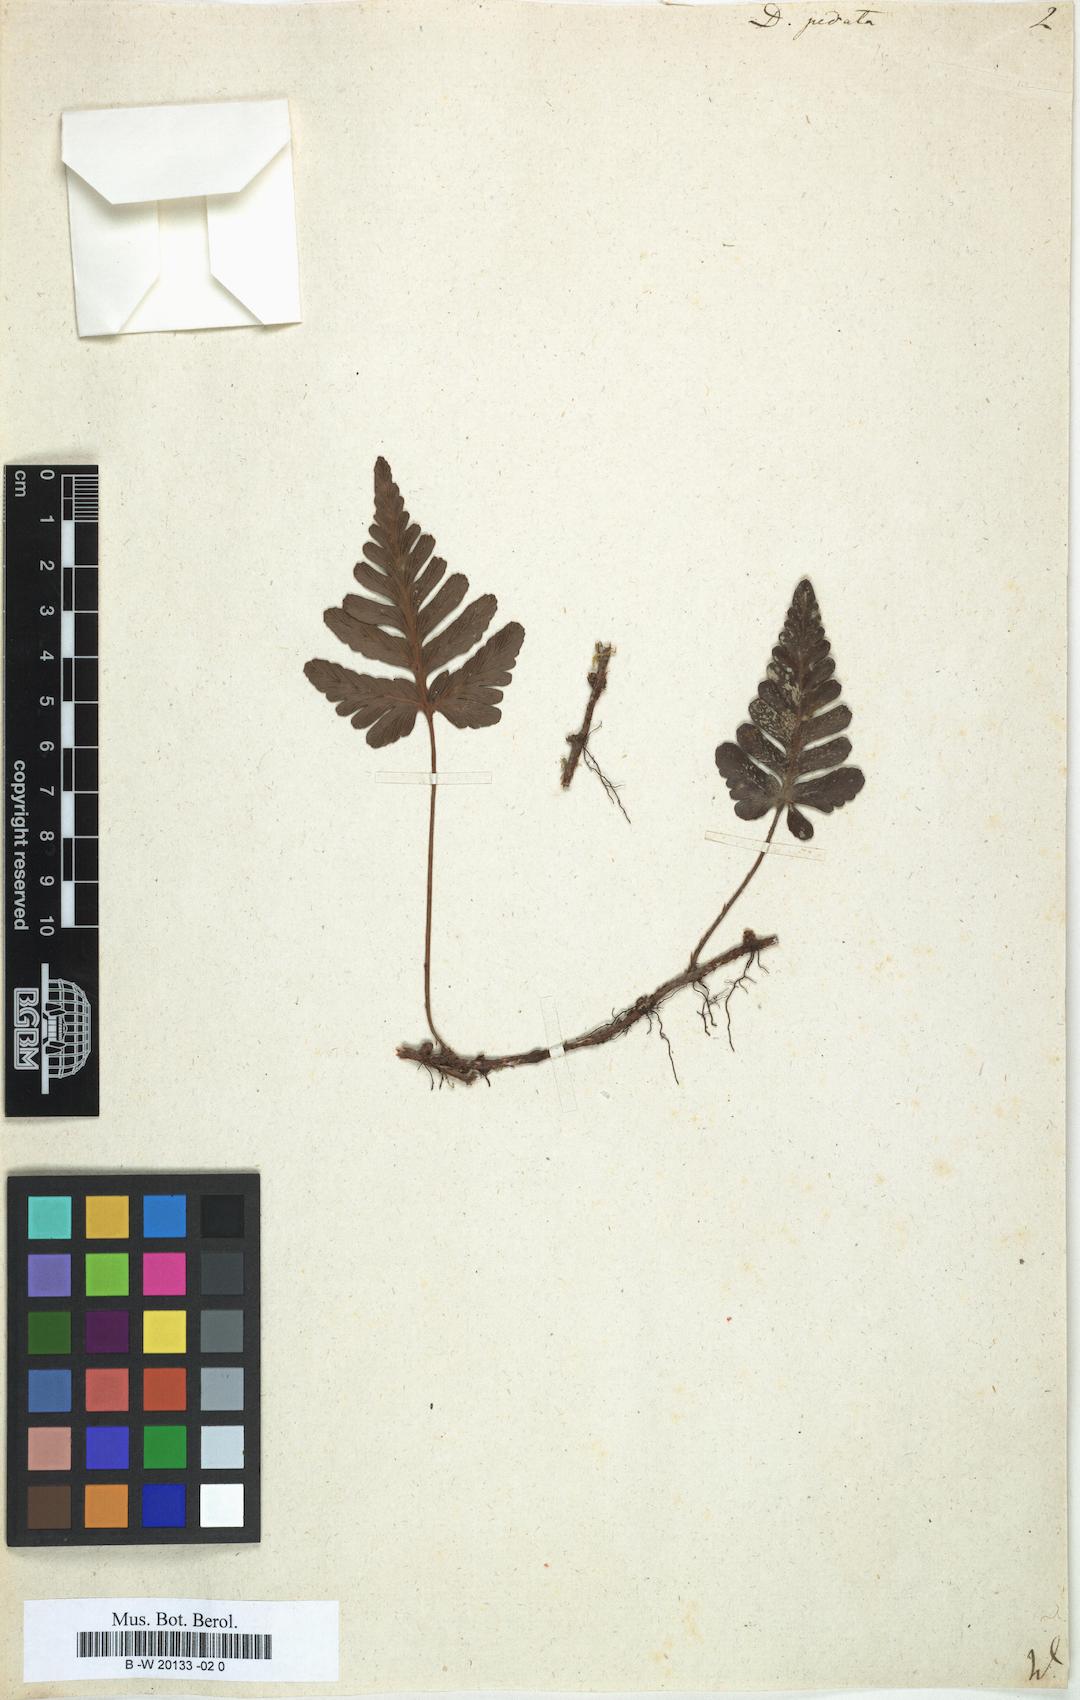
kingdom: Plantae
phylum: Tracheophyta
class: Polypodiopsida
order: Polypodiales
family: Davalliaceae
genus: Davallia
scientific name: Davallia repens
